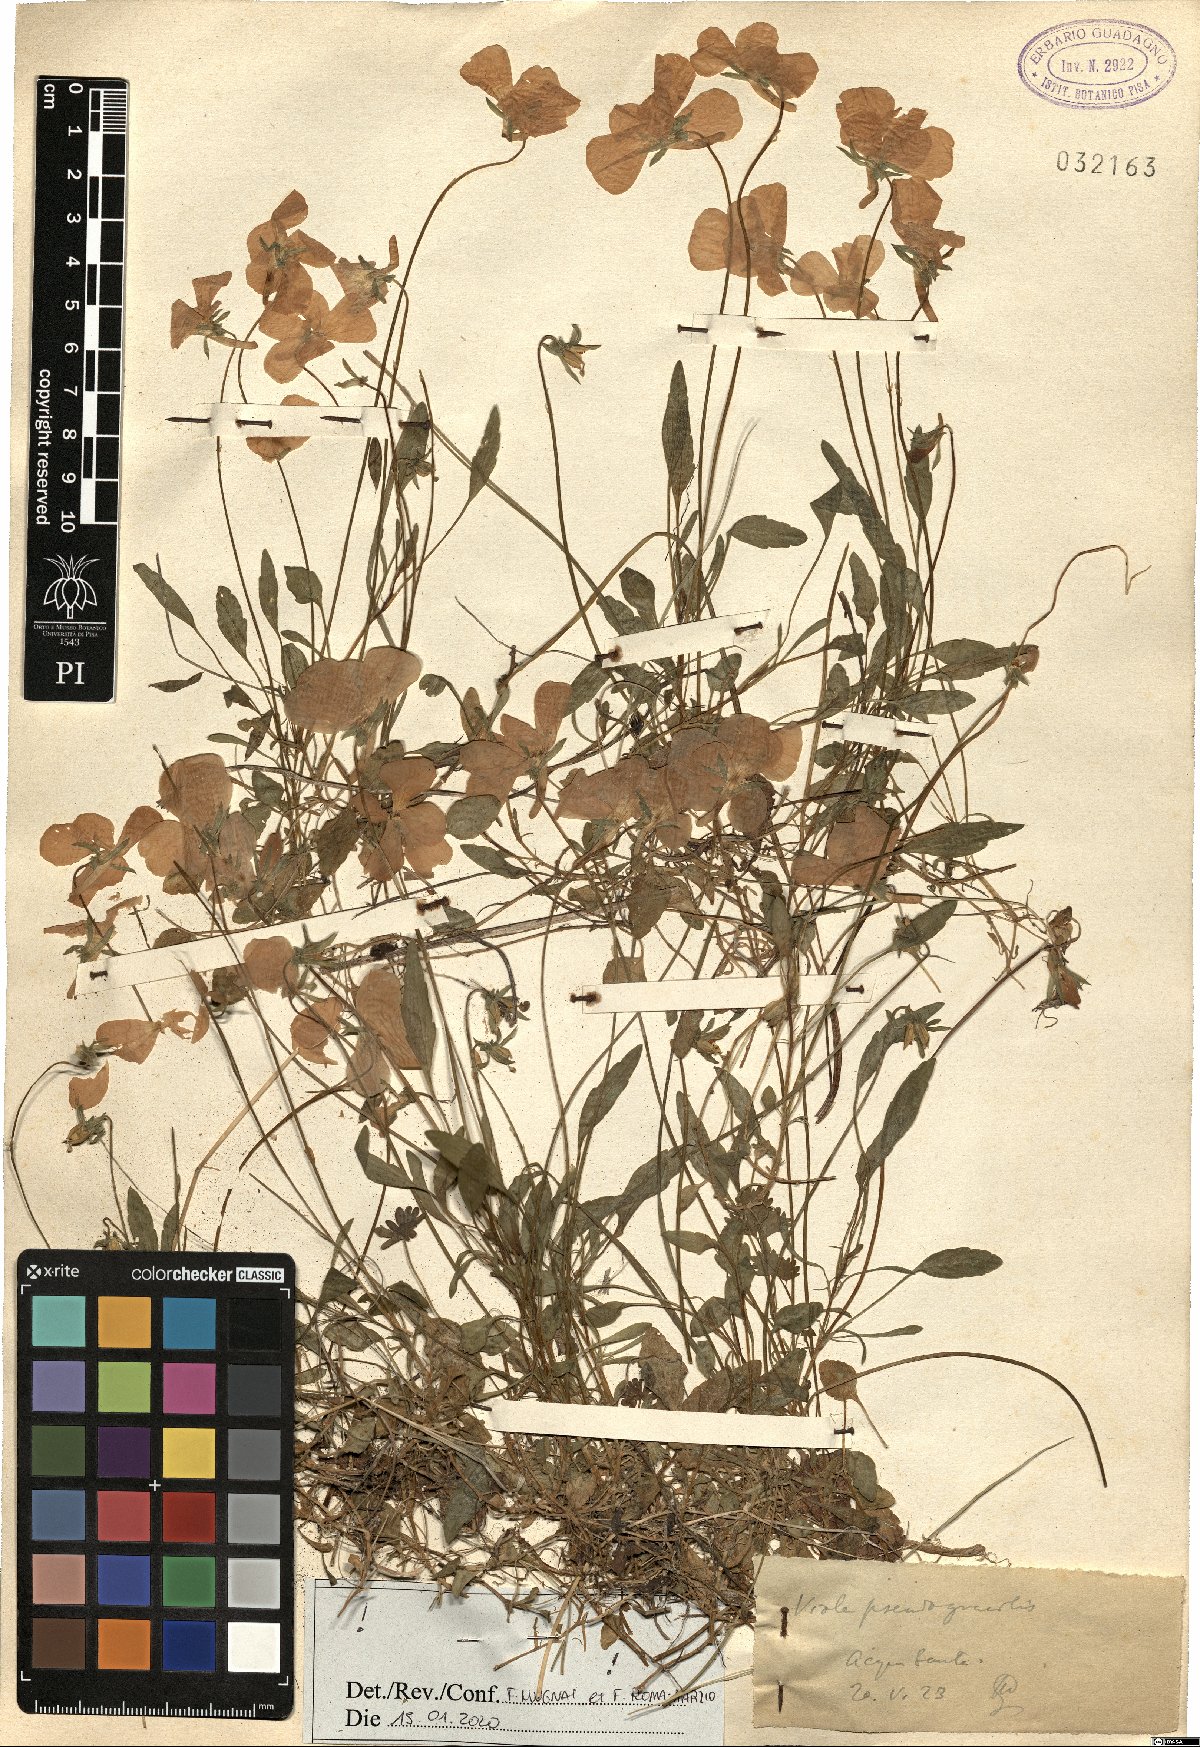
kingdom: Plantae
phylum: Tracheophyta
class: Magnoliopsida
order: Malpighiales
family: Violaceae
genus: Viola
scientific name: Viola pseudogracilis
